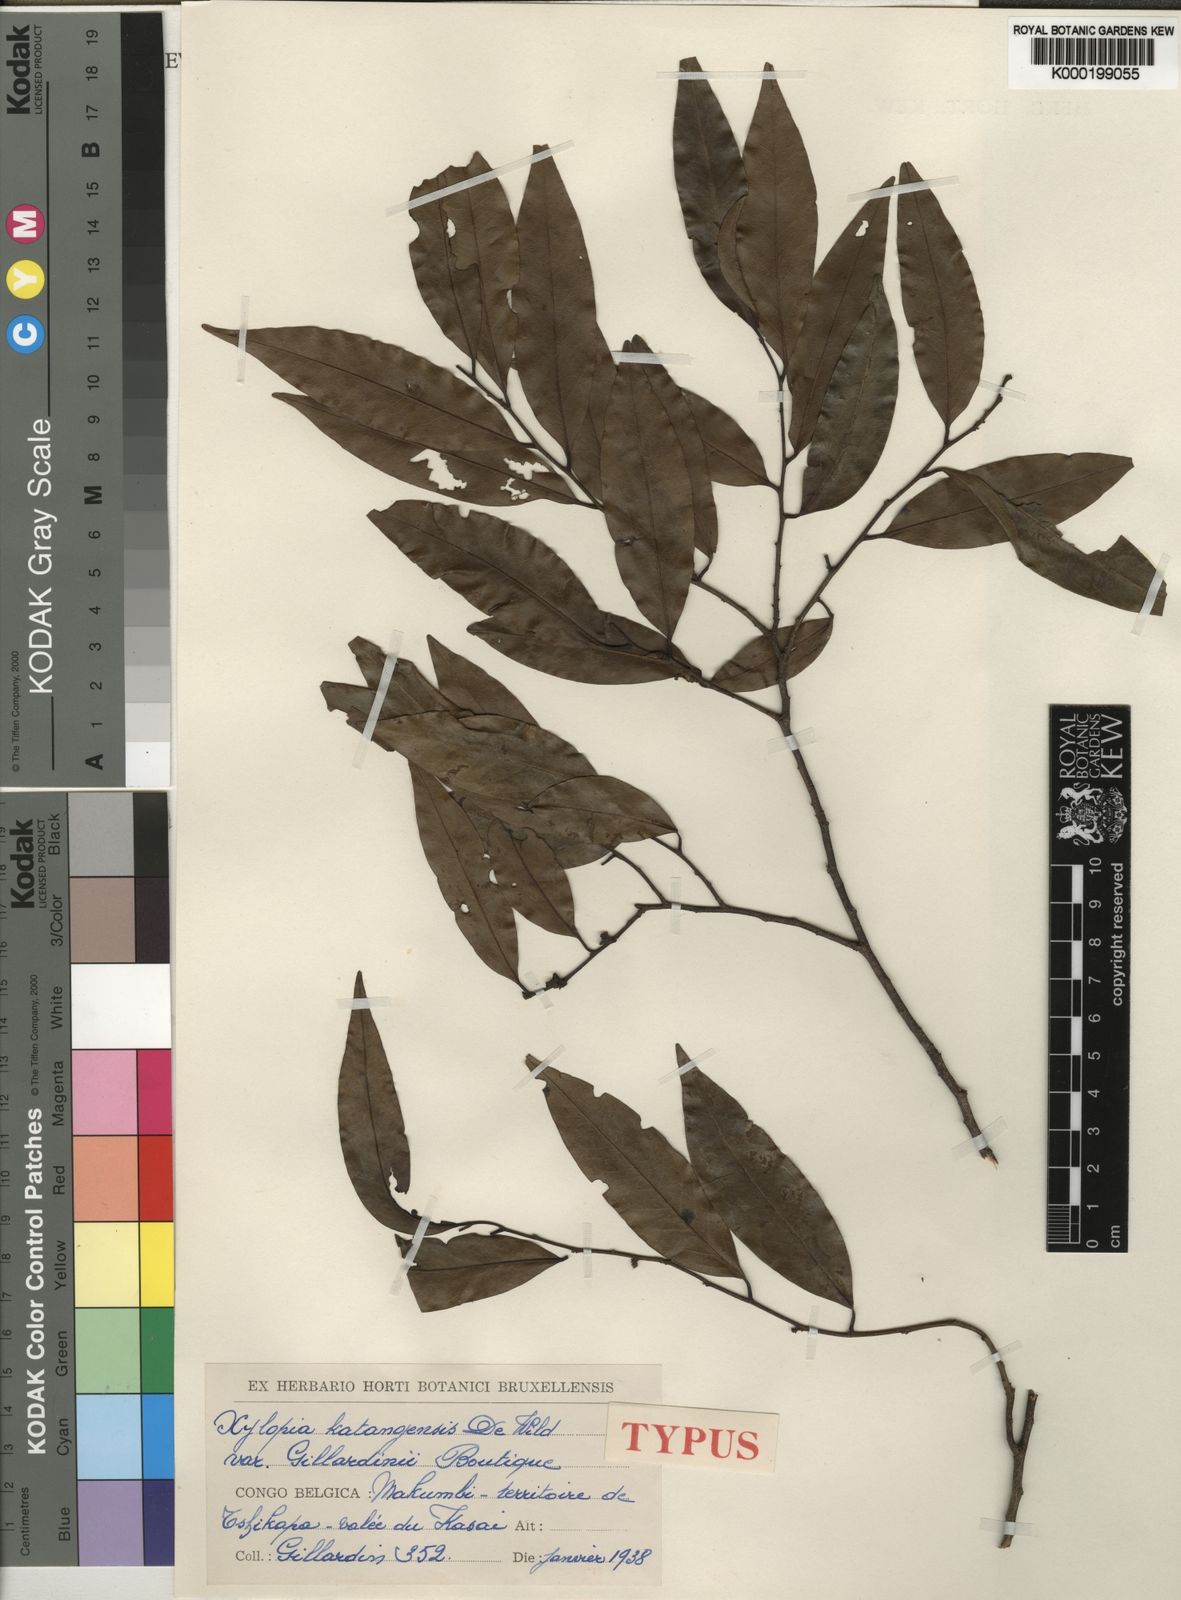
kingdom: Plantae
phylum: Tracheophyta
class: Magnoliopsida
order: Magnoliales
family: Annonaceae
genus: Xylopia
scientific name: Xylopia katangensis
